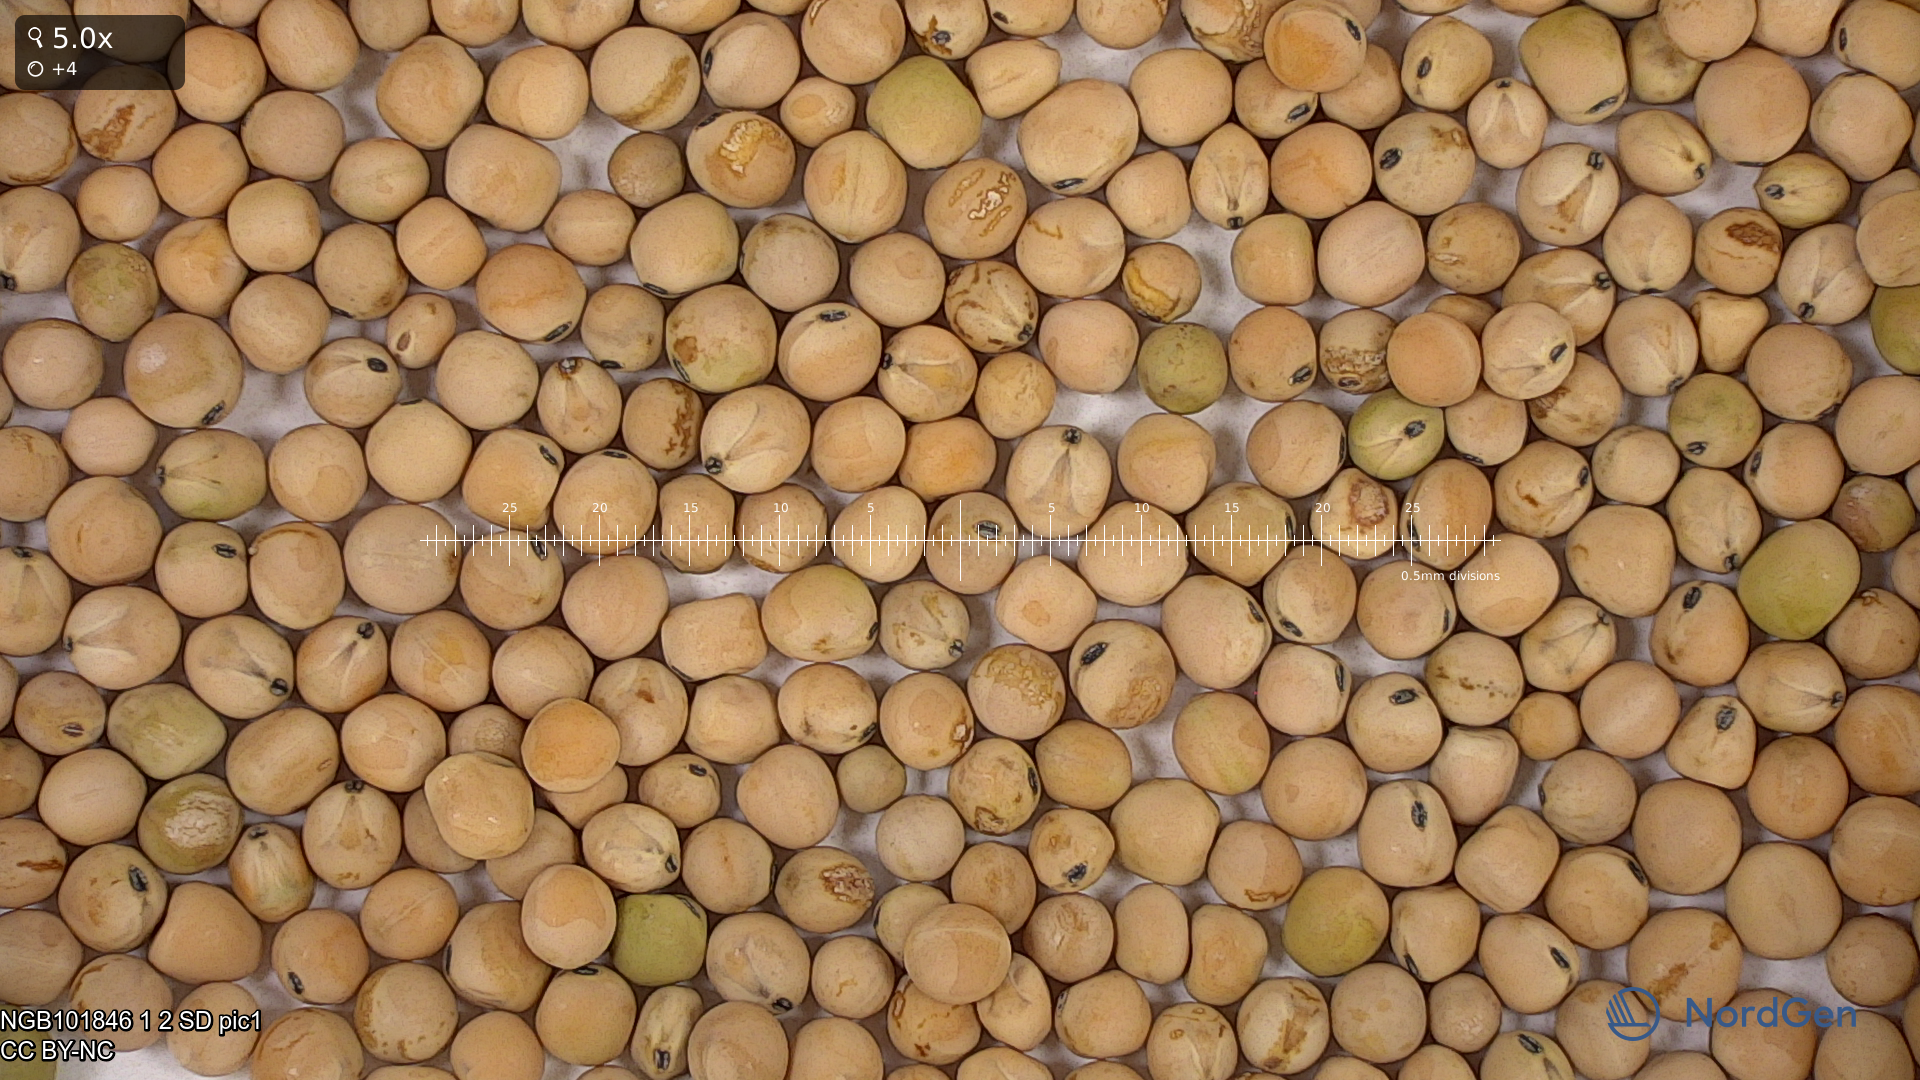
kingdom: Plantae
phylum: Tracheophyta
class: Magnoliopsida
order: Fabales
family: Fabaceae
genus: Lathyrus
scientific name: Lathyrus oleraceus
